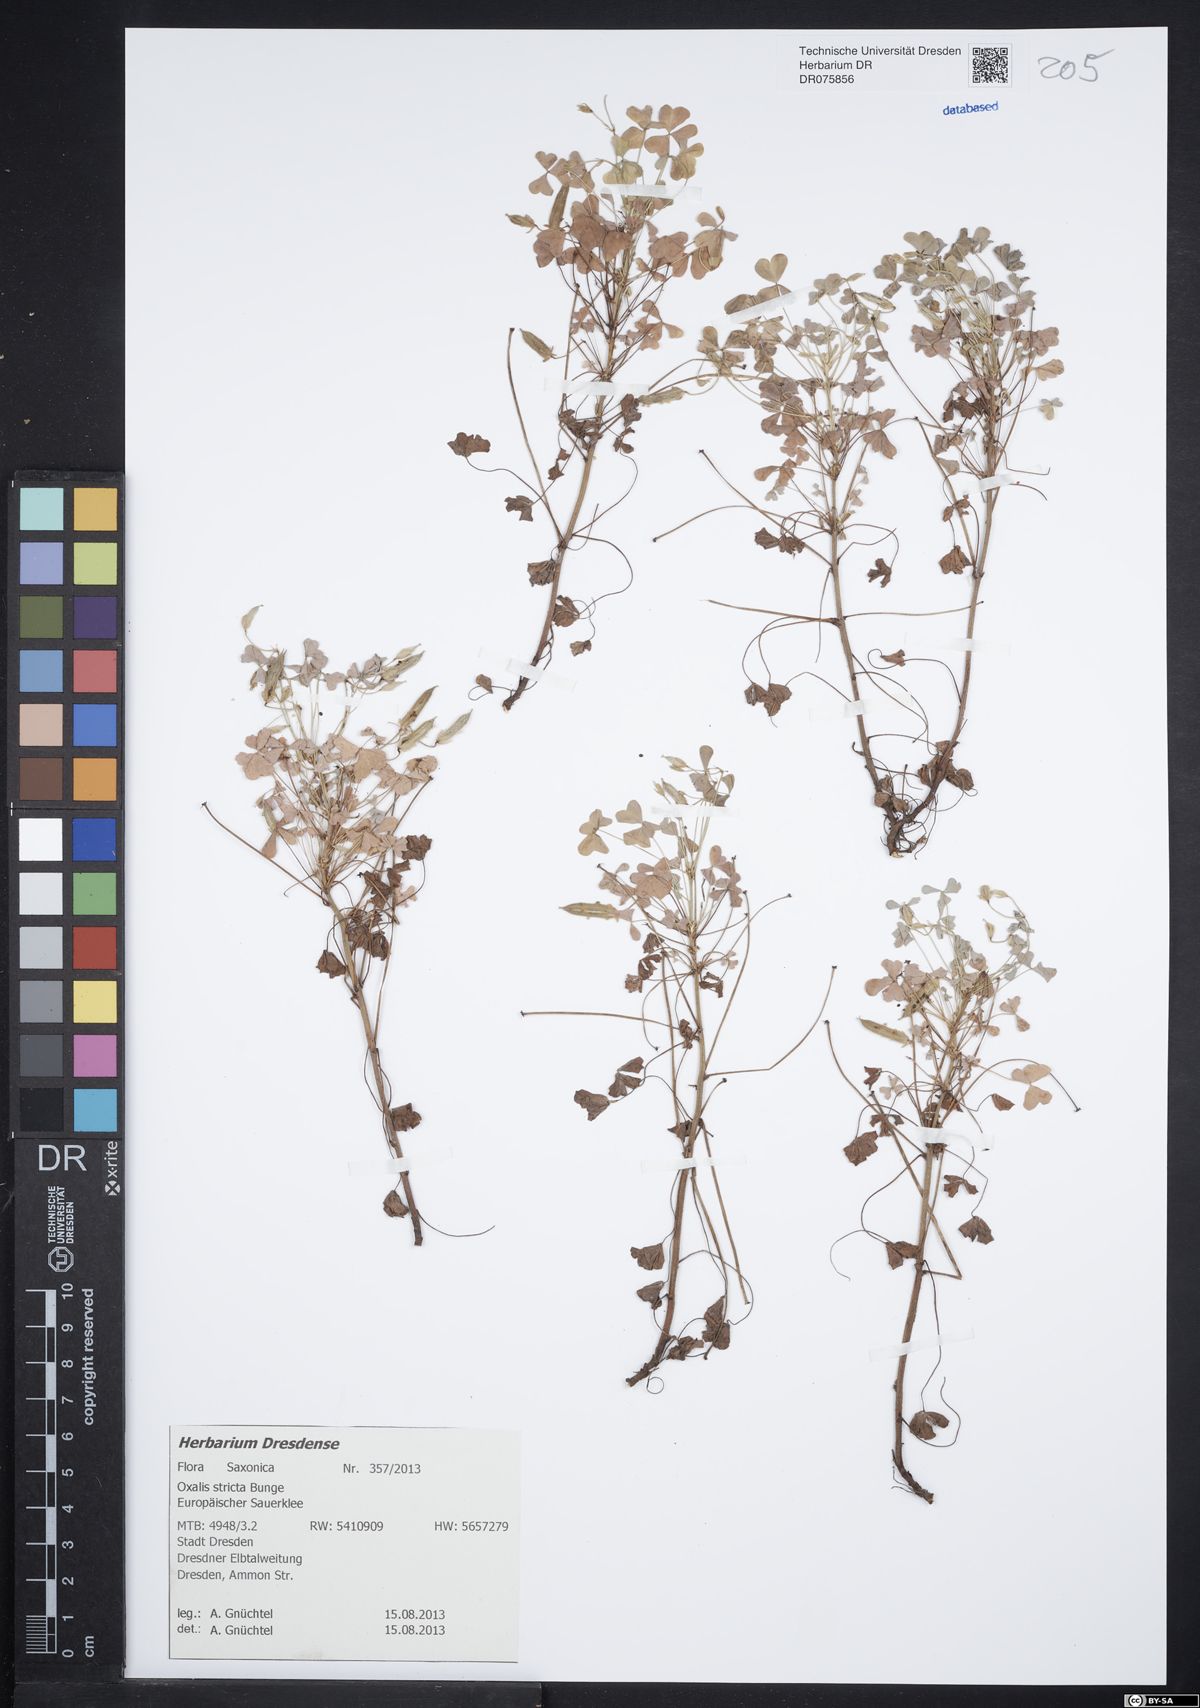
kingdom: Plantae
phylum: Tracheophyta
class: Magnoliopsida
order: Oxalidales
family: Oxalidaceae
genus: Oxalis
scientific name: Oxalis stricta
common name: Upright yellow-sorrel
